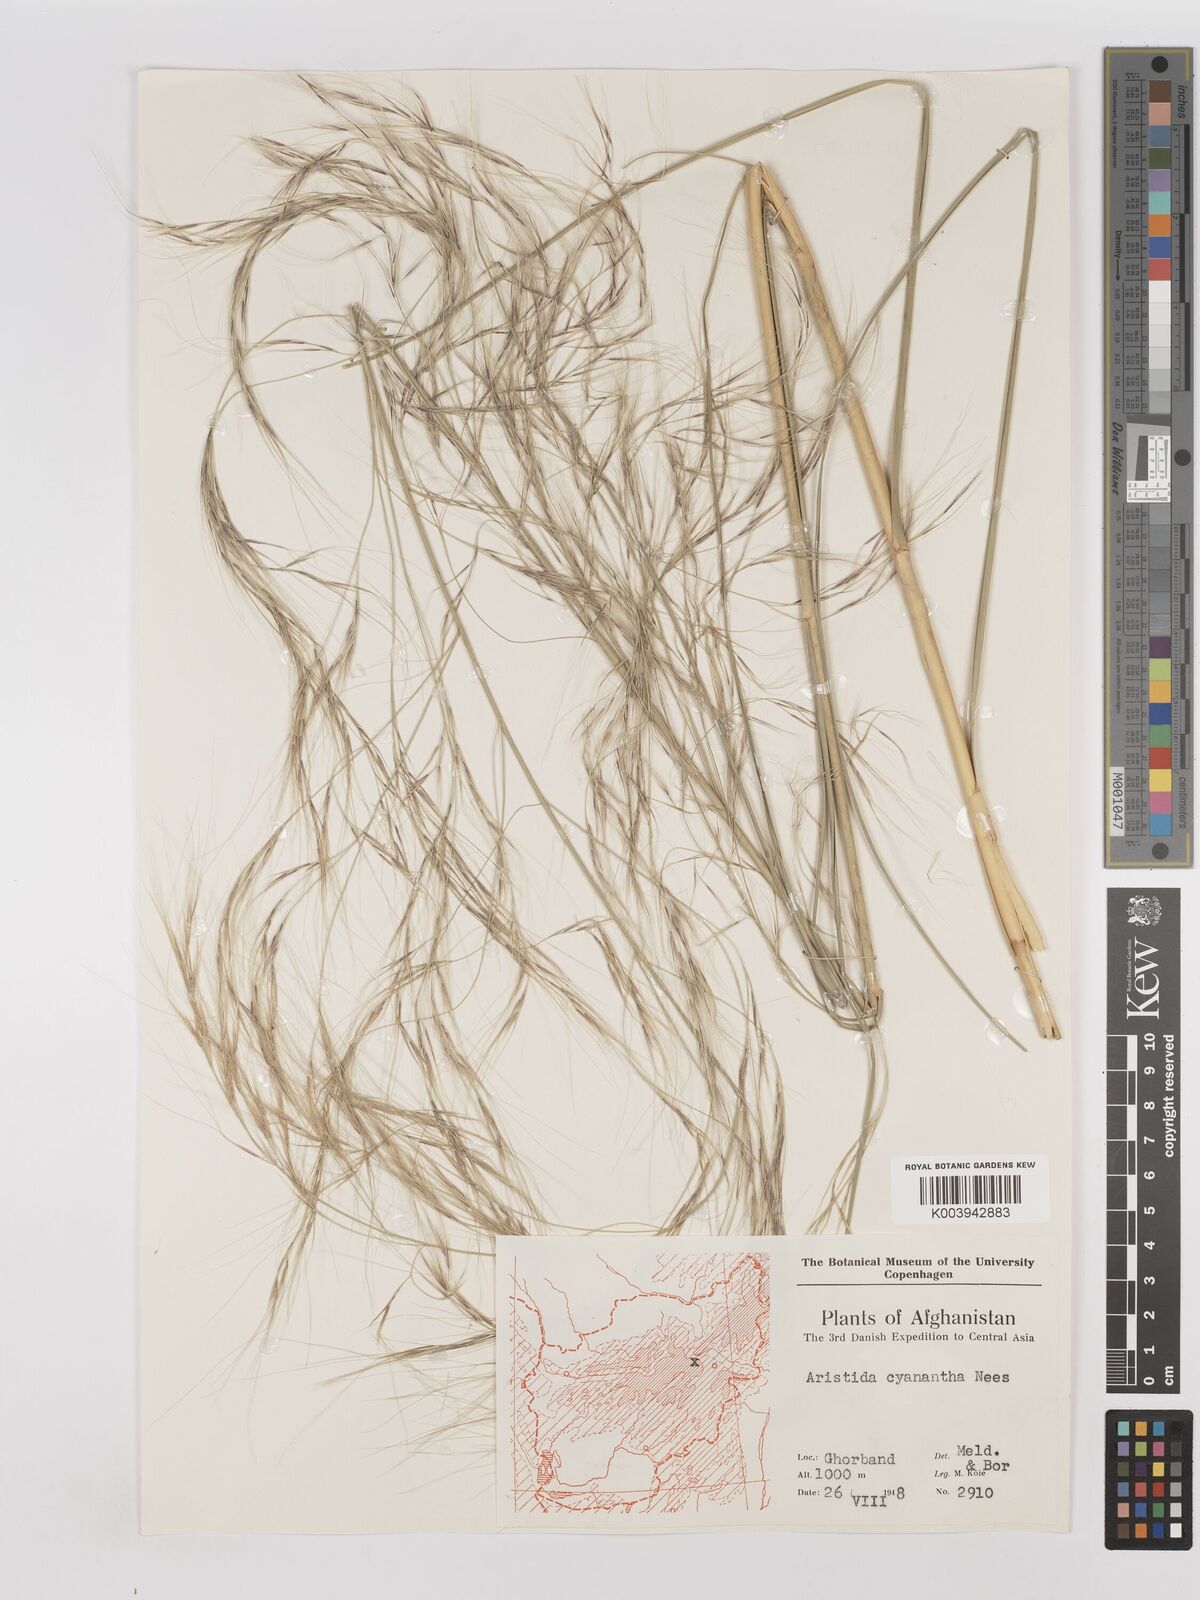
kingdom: Plantae
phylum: Tracheophyta
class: Liliopsida
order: Poales
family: Poaceae
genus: Aristida
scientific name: Aristida cyanantha
